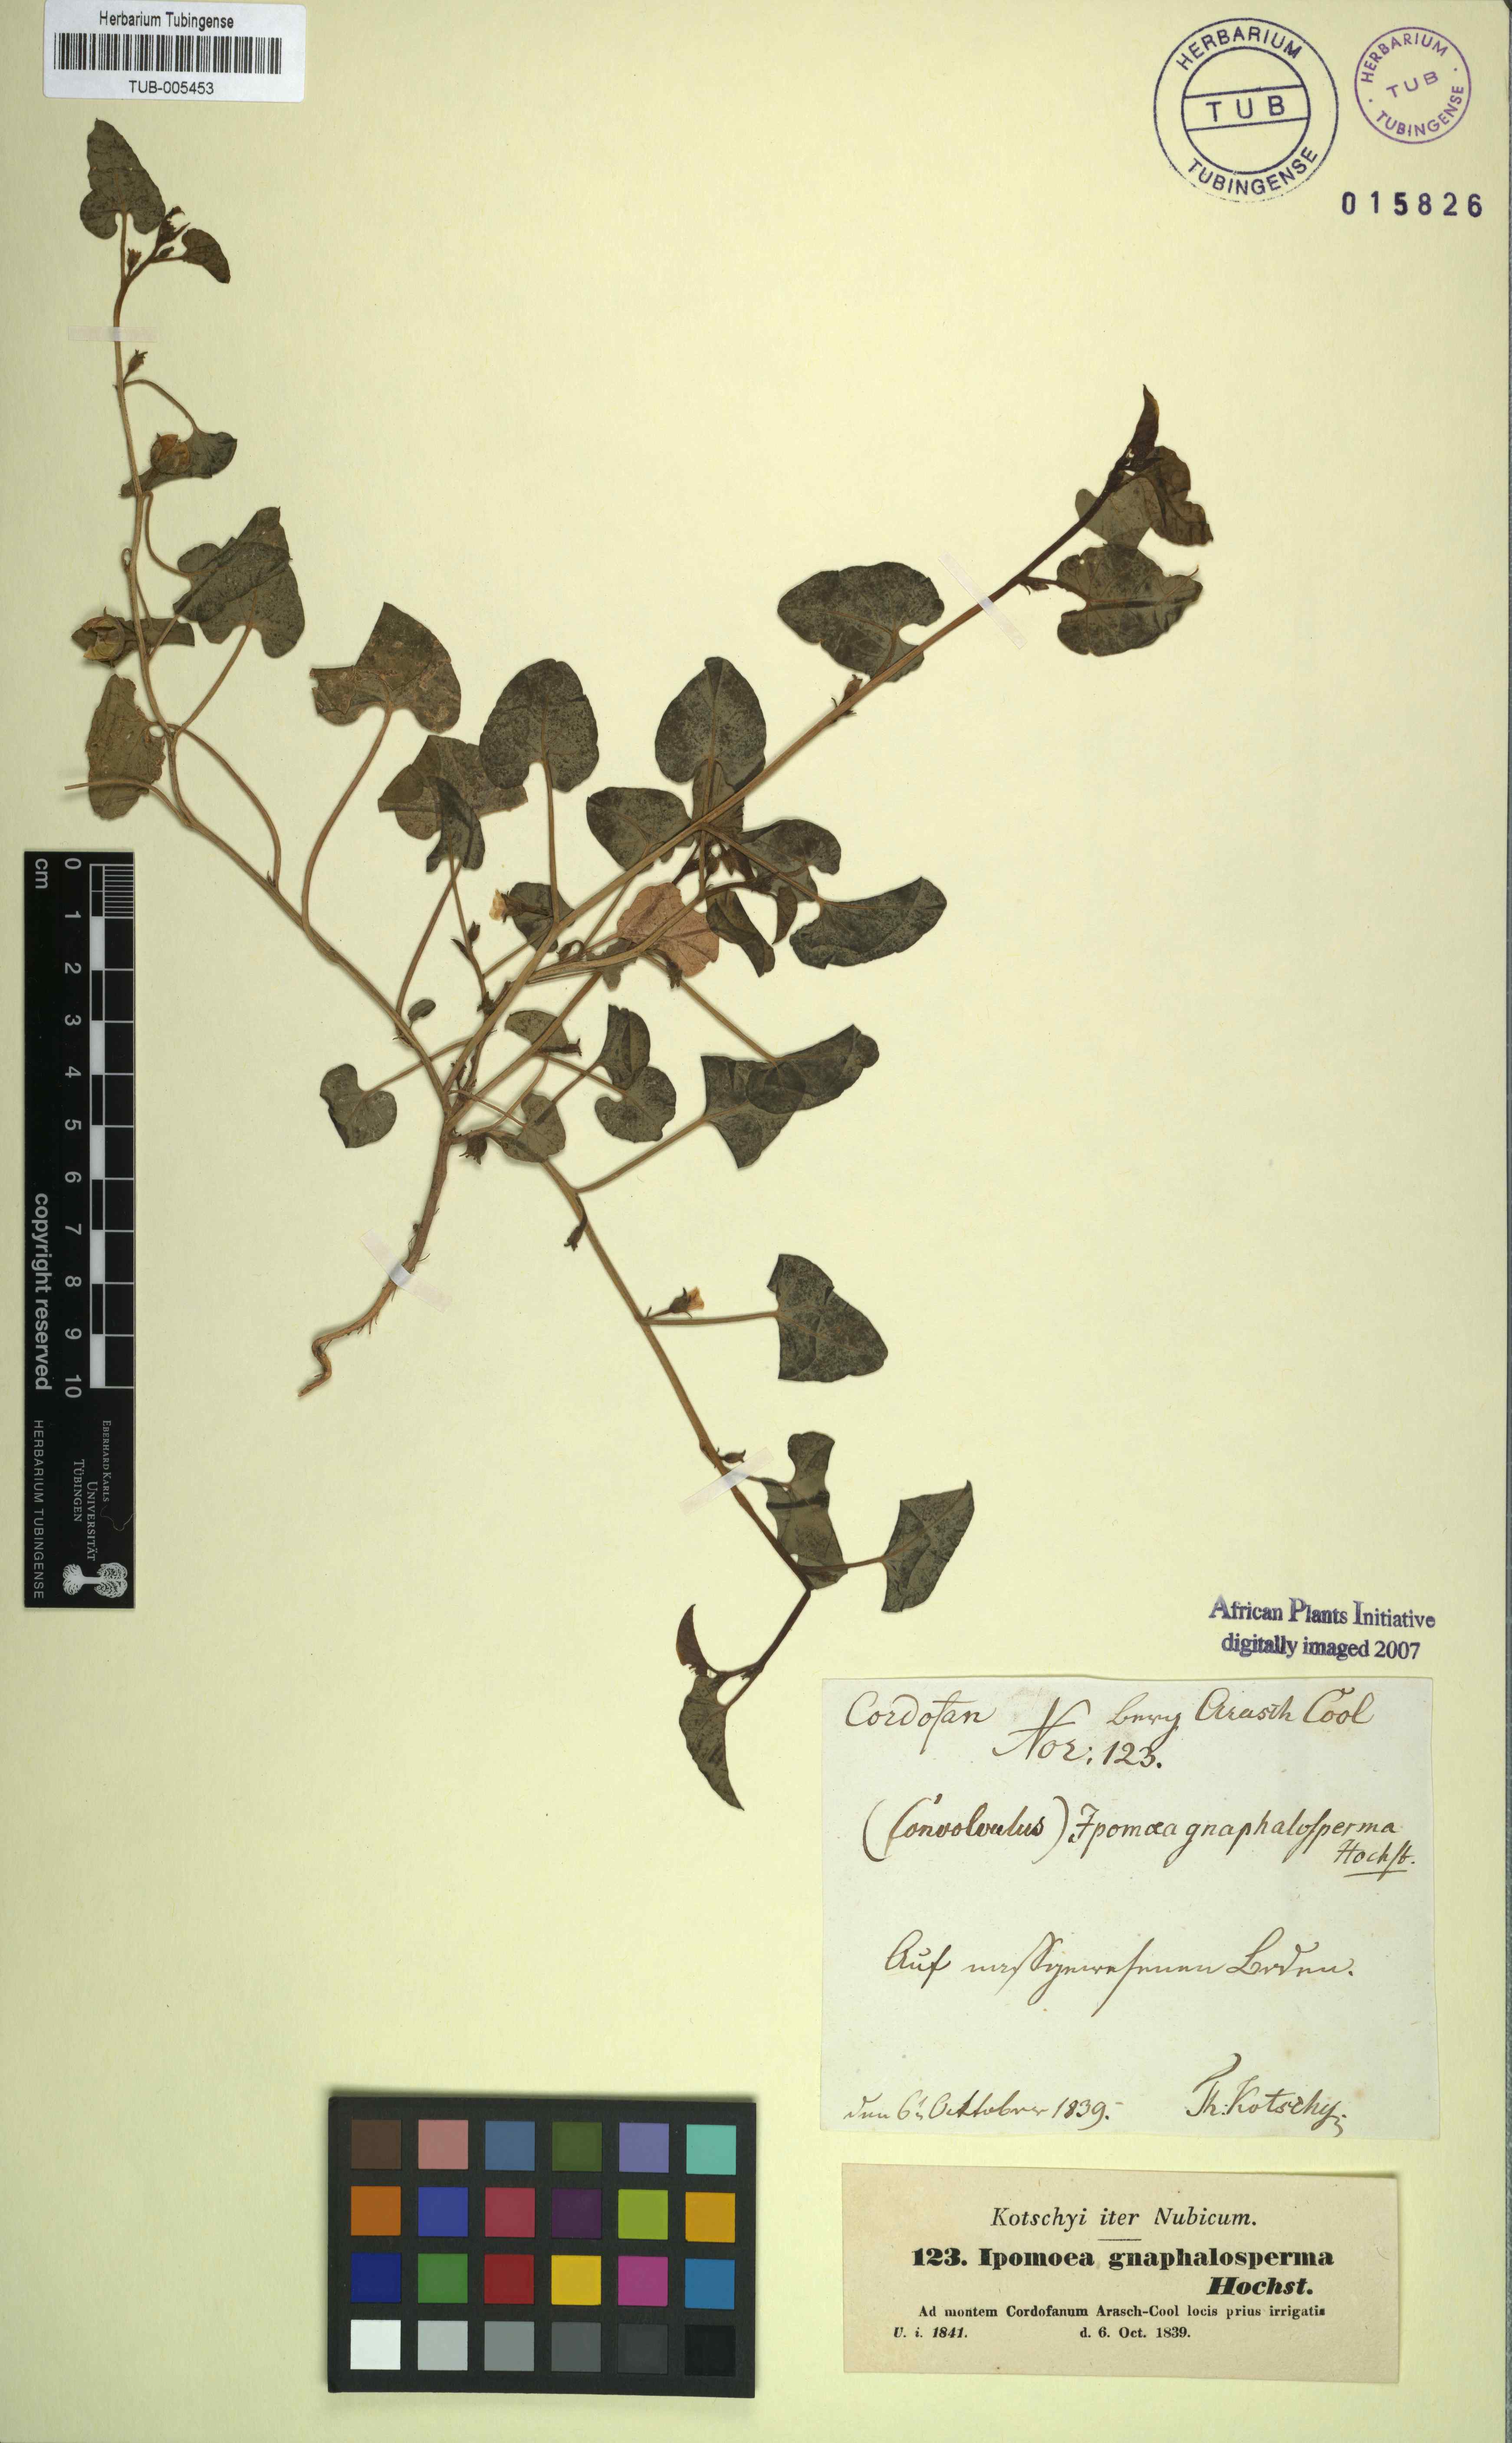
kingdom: Plantae
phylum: Tracheophyta
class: Magnoliopsida
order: Solanales
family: Convolvulaceae
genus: Ipomoea
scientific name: Ipomoea verticillata
